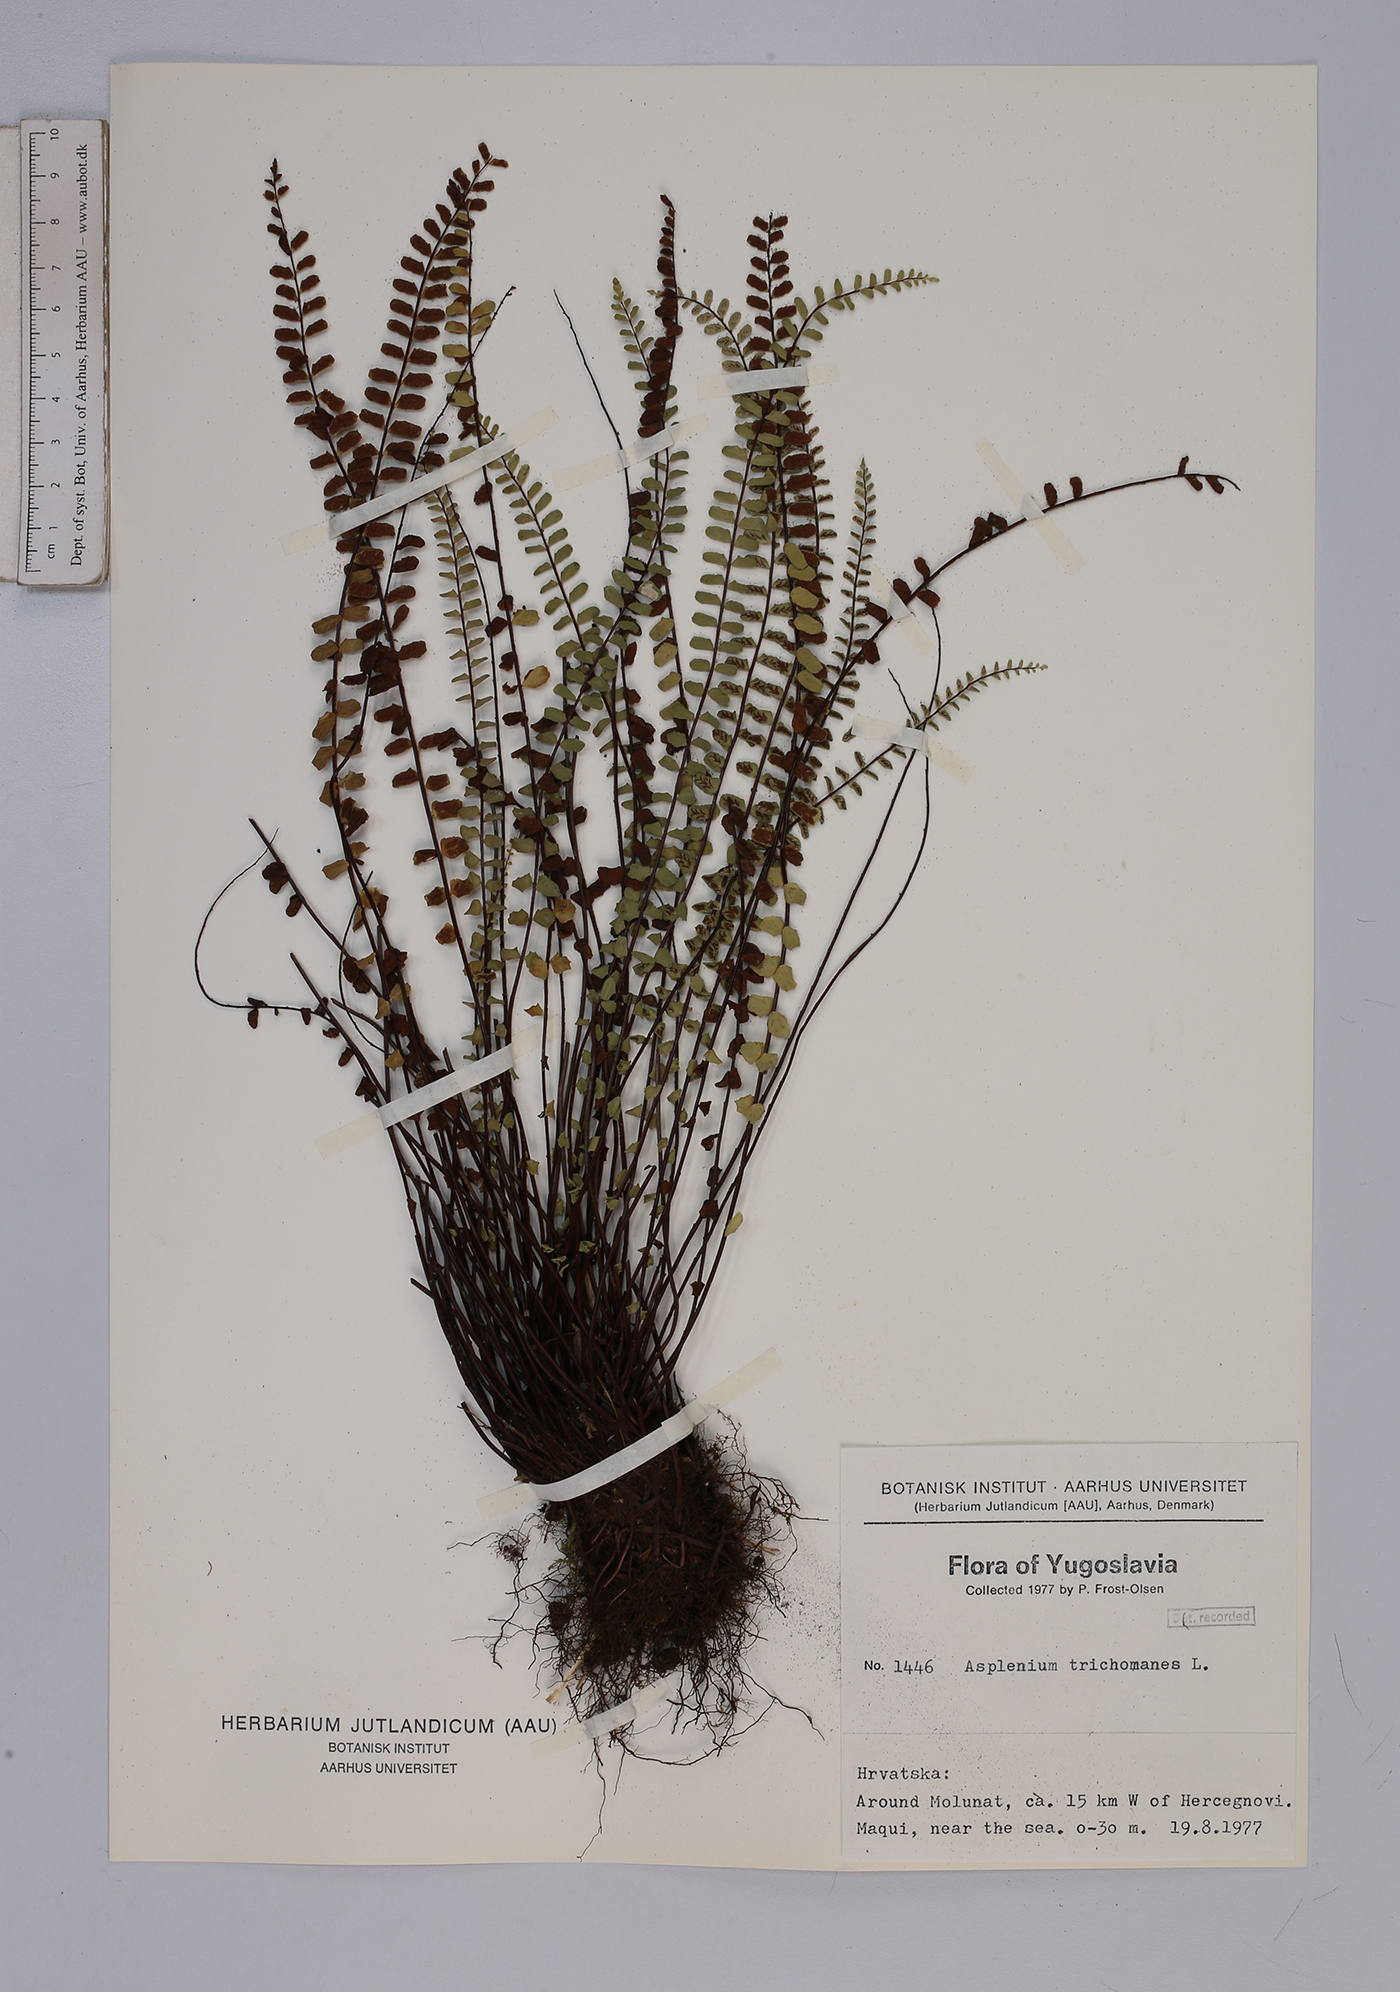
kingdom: Plantae
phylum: Tracheophyta
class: Polypodiopsida
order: Polypodiales
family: Aspleniaceae
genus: Asplenium
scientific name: Asplenium trichomanes
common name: Maidenhair spleenwort
